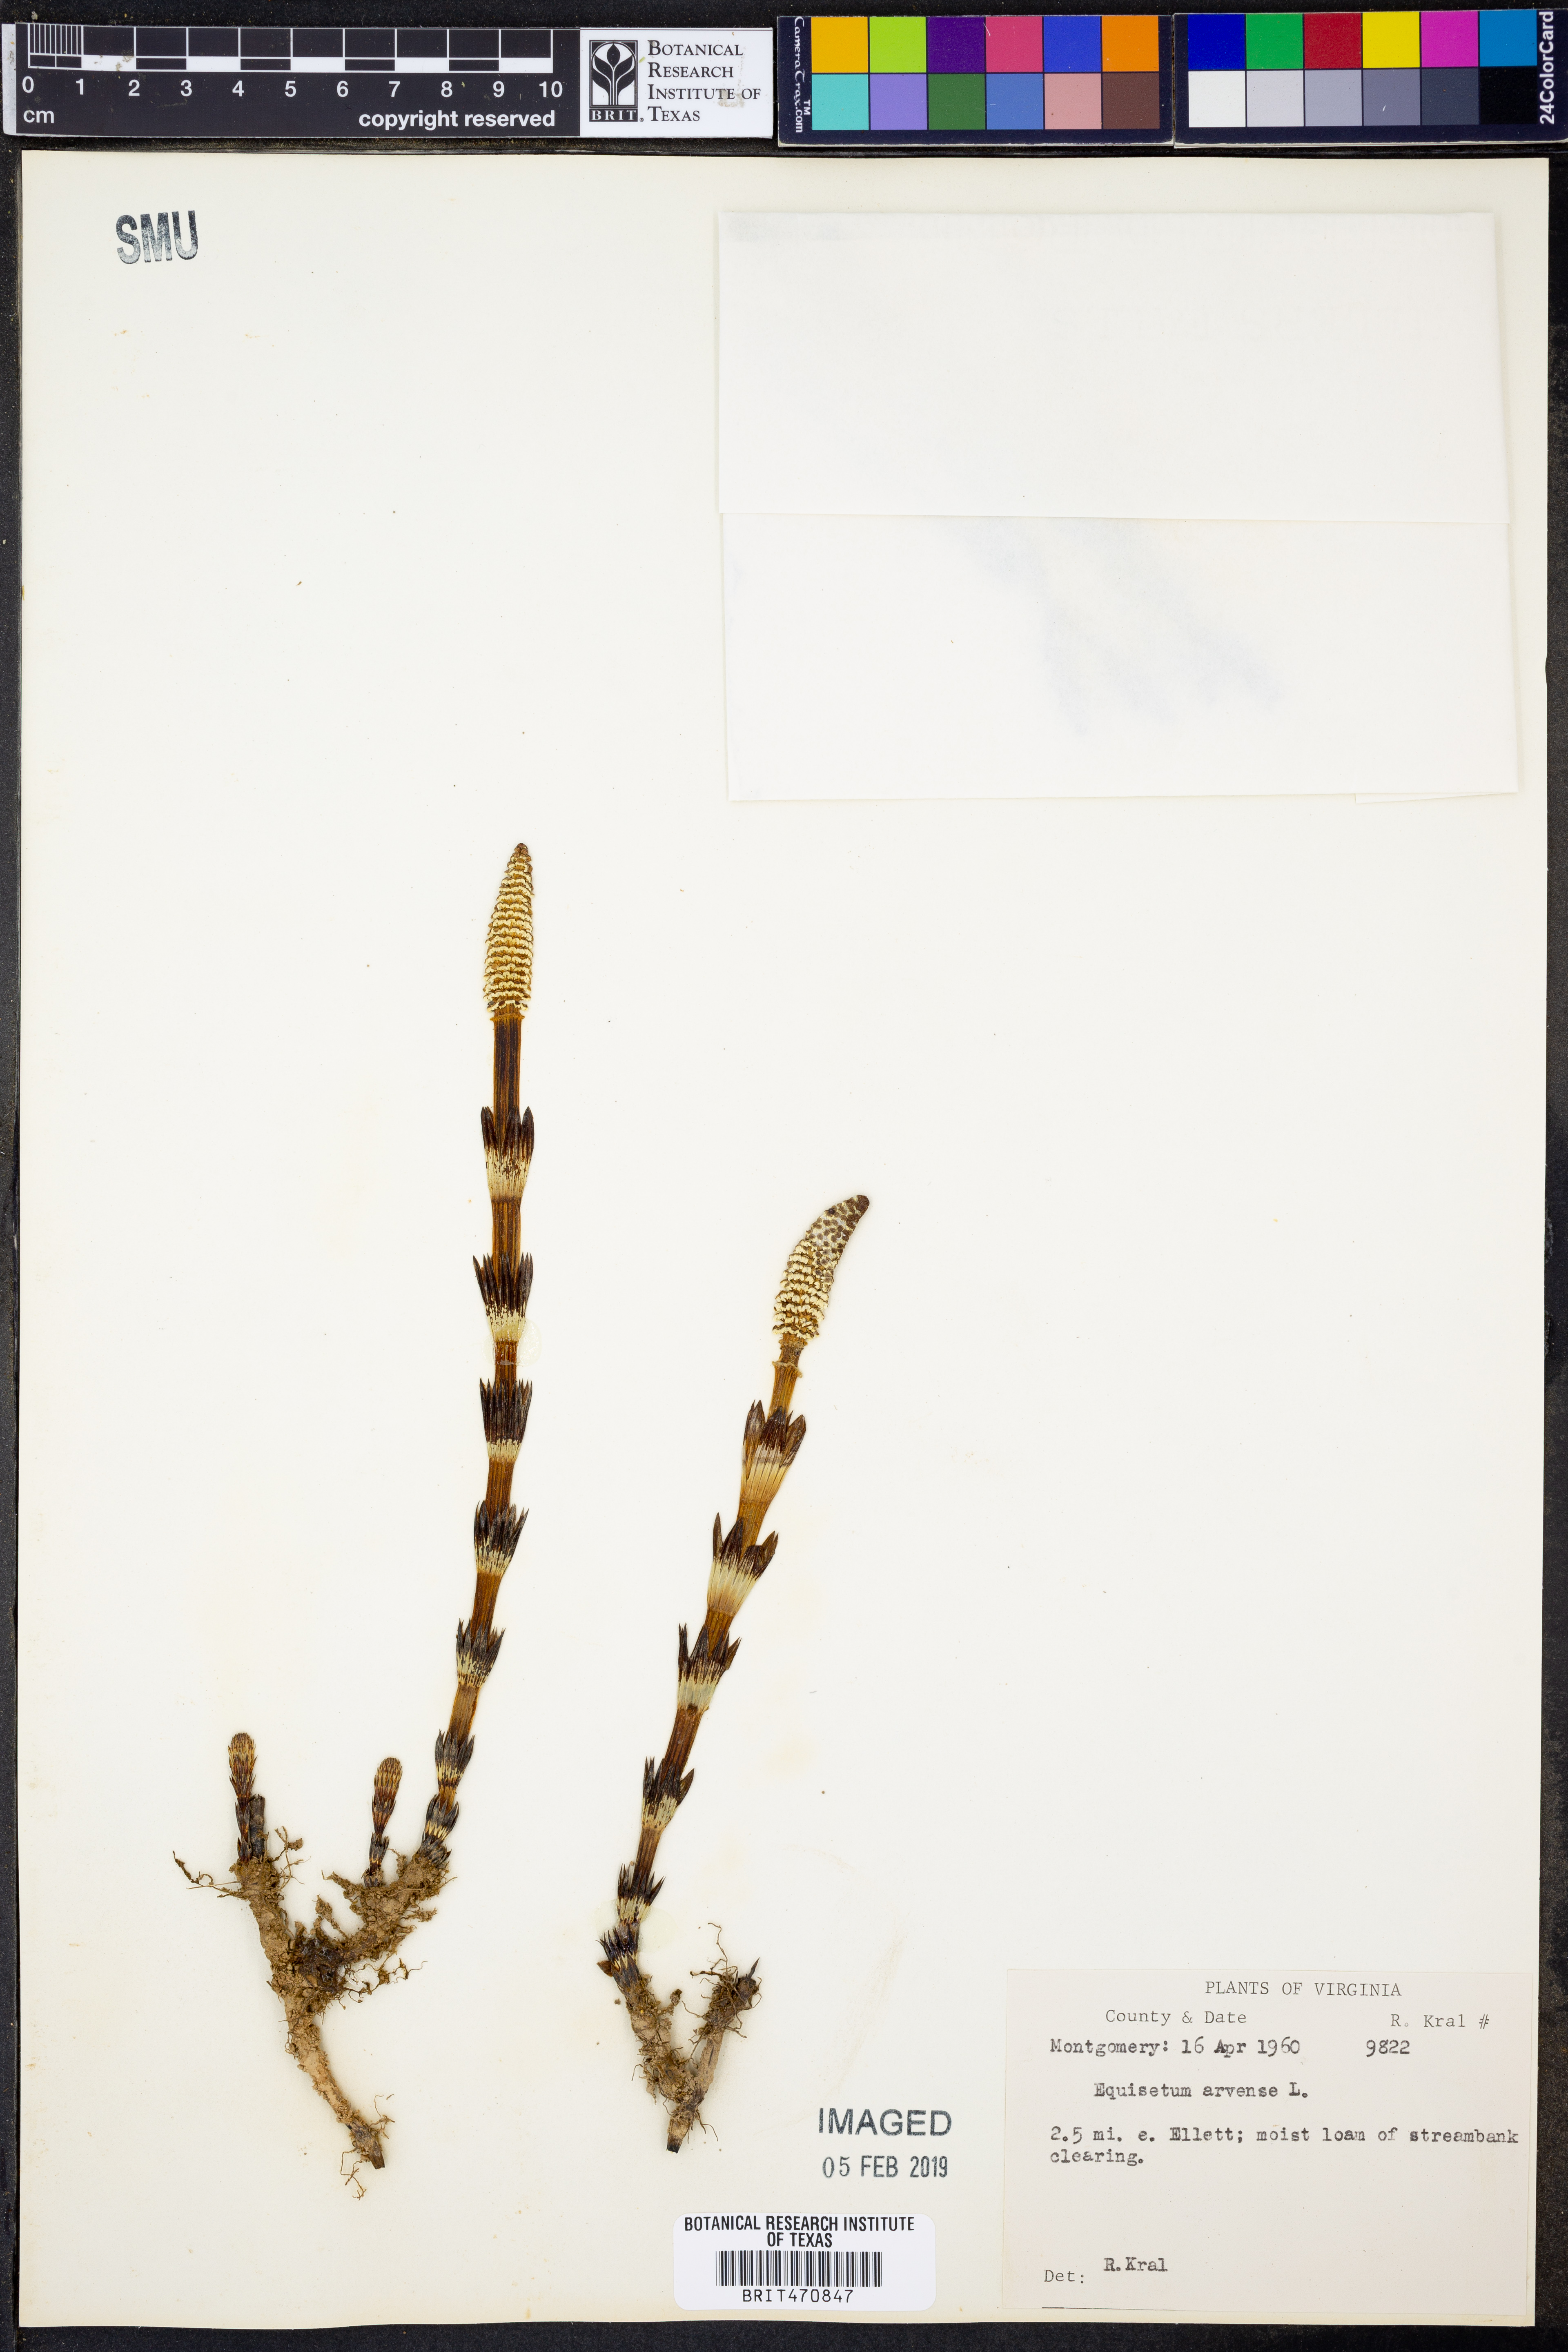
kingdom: Plantae
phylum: Tracheophyta
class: Polypodiopsida
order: Equisetales
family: Equisetaceae
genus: Equisetum
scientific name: Equisetum arvense
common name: Field horsetail
